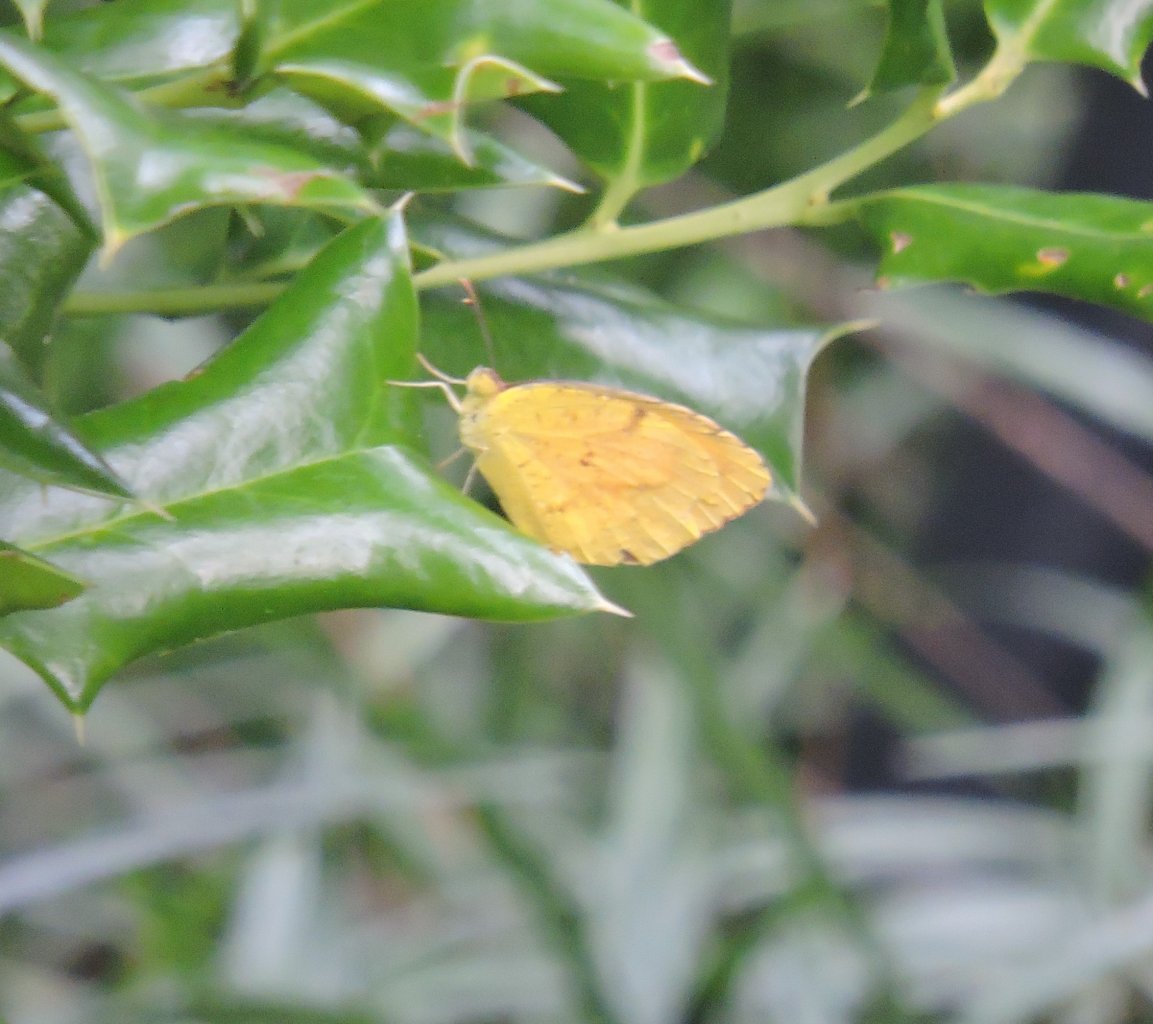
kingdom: Animalia
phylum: Arthropoda
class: Insecta
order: Lepidoptera
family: Pieridae
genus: Abaeis
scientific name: Abaeis nicippe
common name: Sleepy Orange
